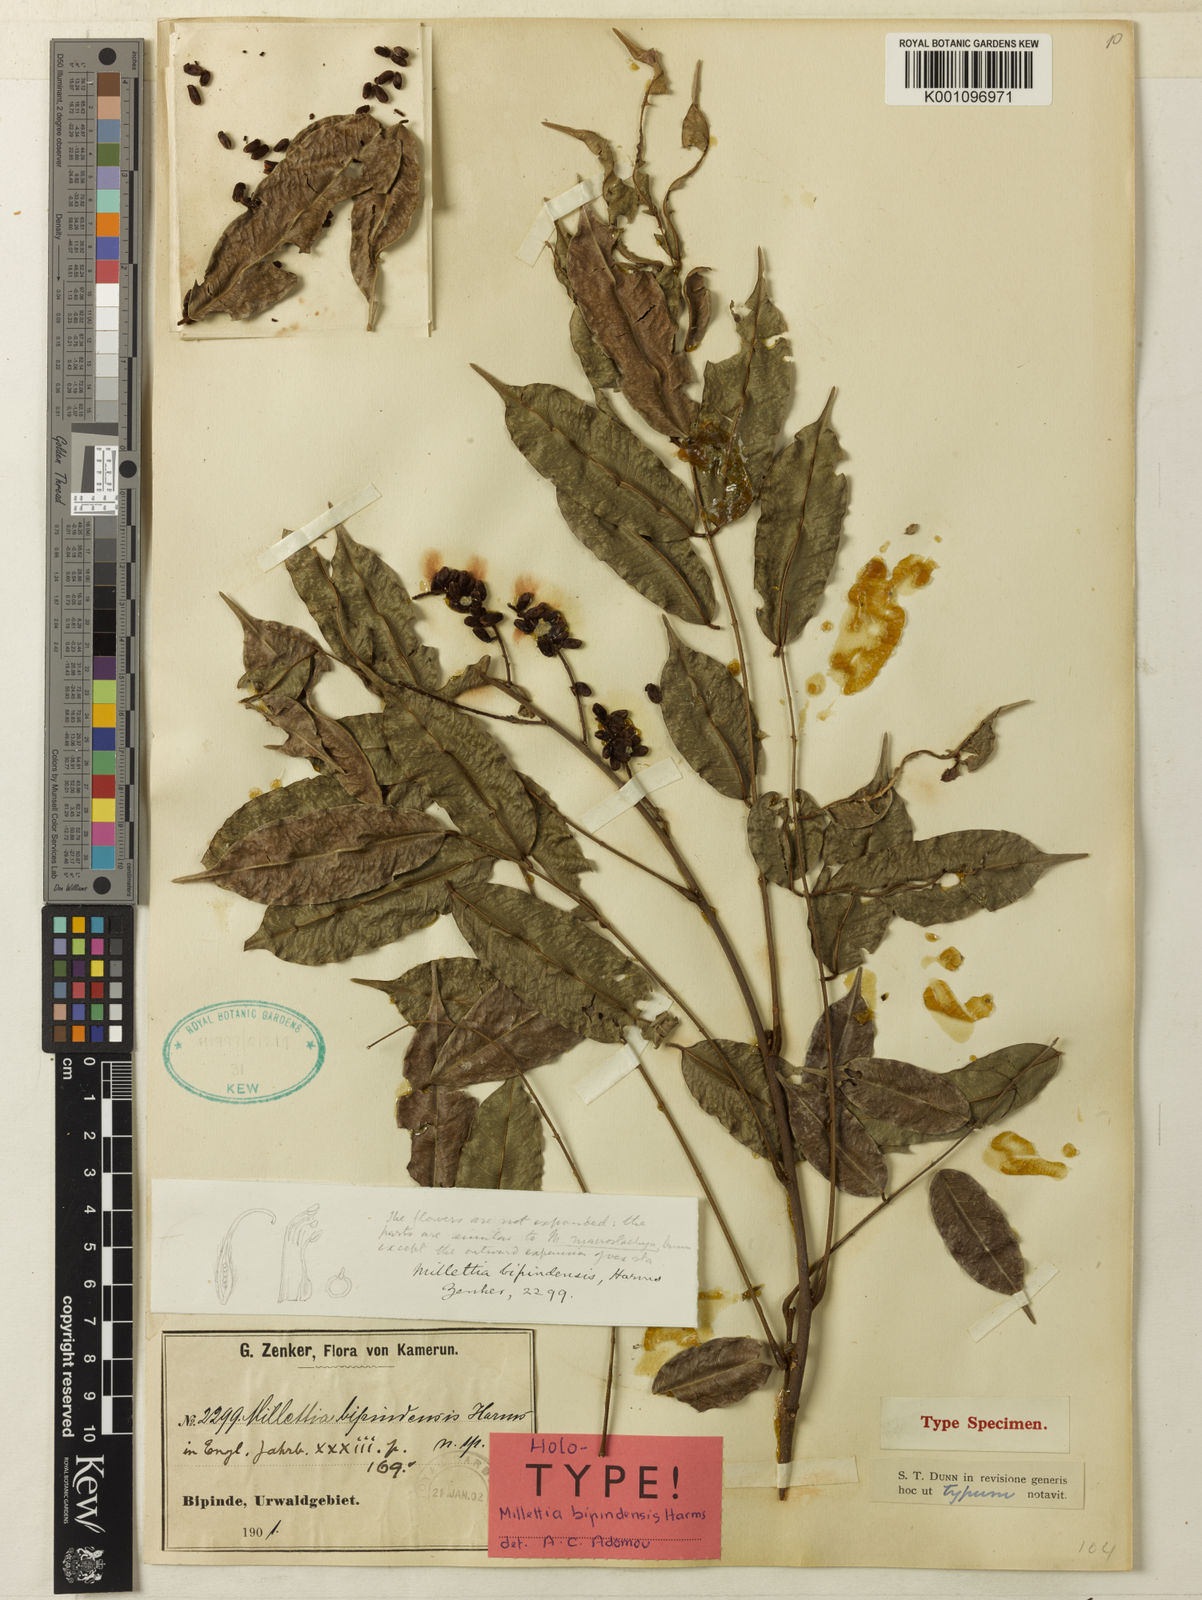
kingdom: Plantae
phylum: Tracheophyta
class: Magnoliopsida
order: Fabales
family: Fabaceae
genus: Millettia
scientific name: Millettia bipindensis
